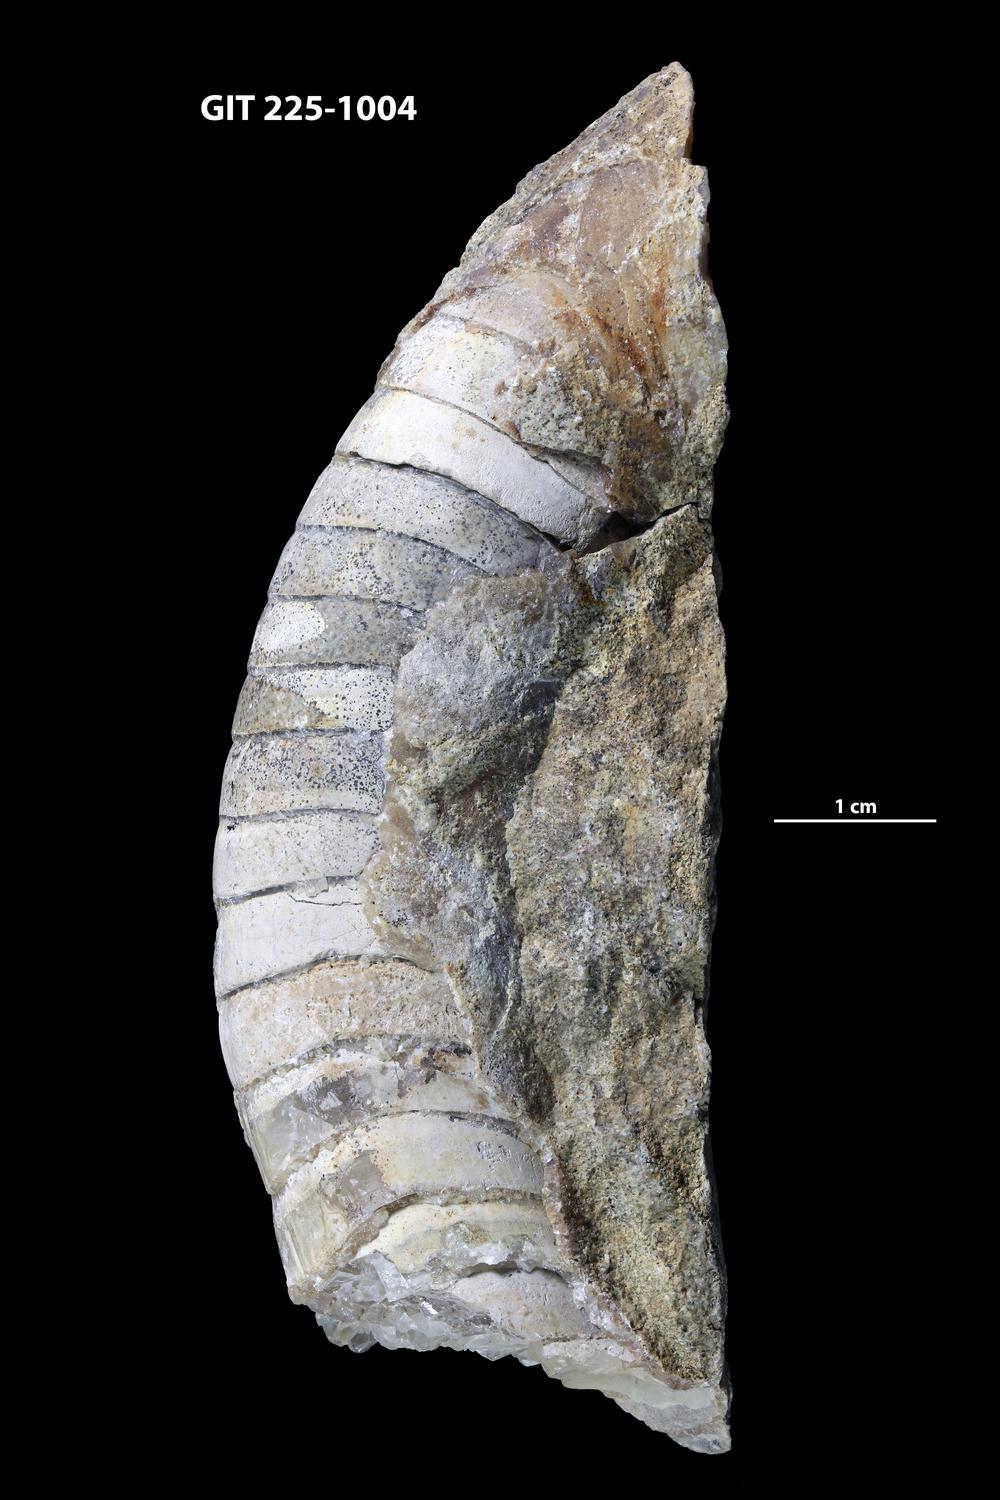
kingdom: Animalia
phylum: Mollusca
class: Cephalopoda
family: Estonioceratidae
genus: Tragoceras
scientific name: Tragoceras
